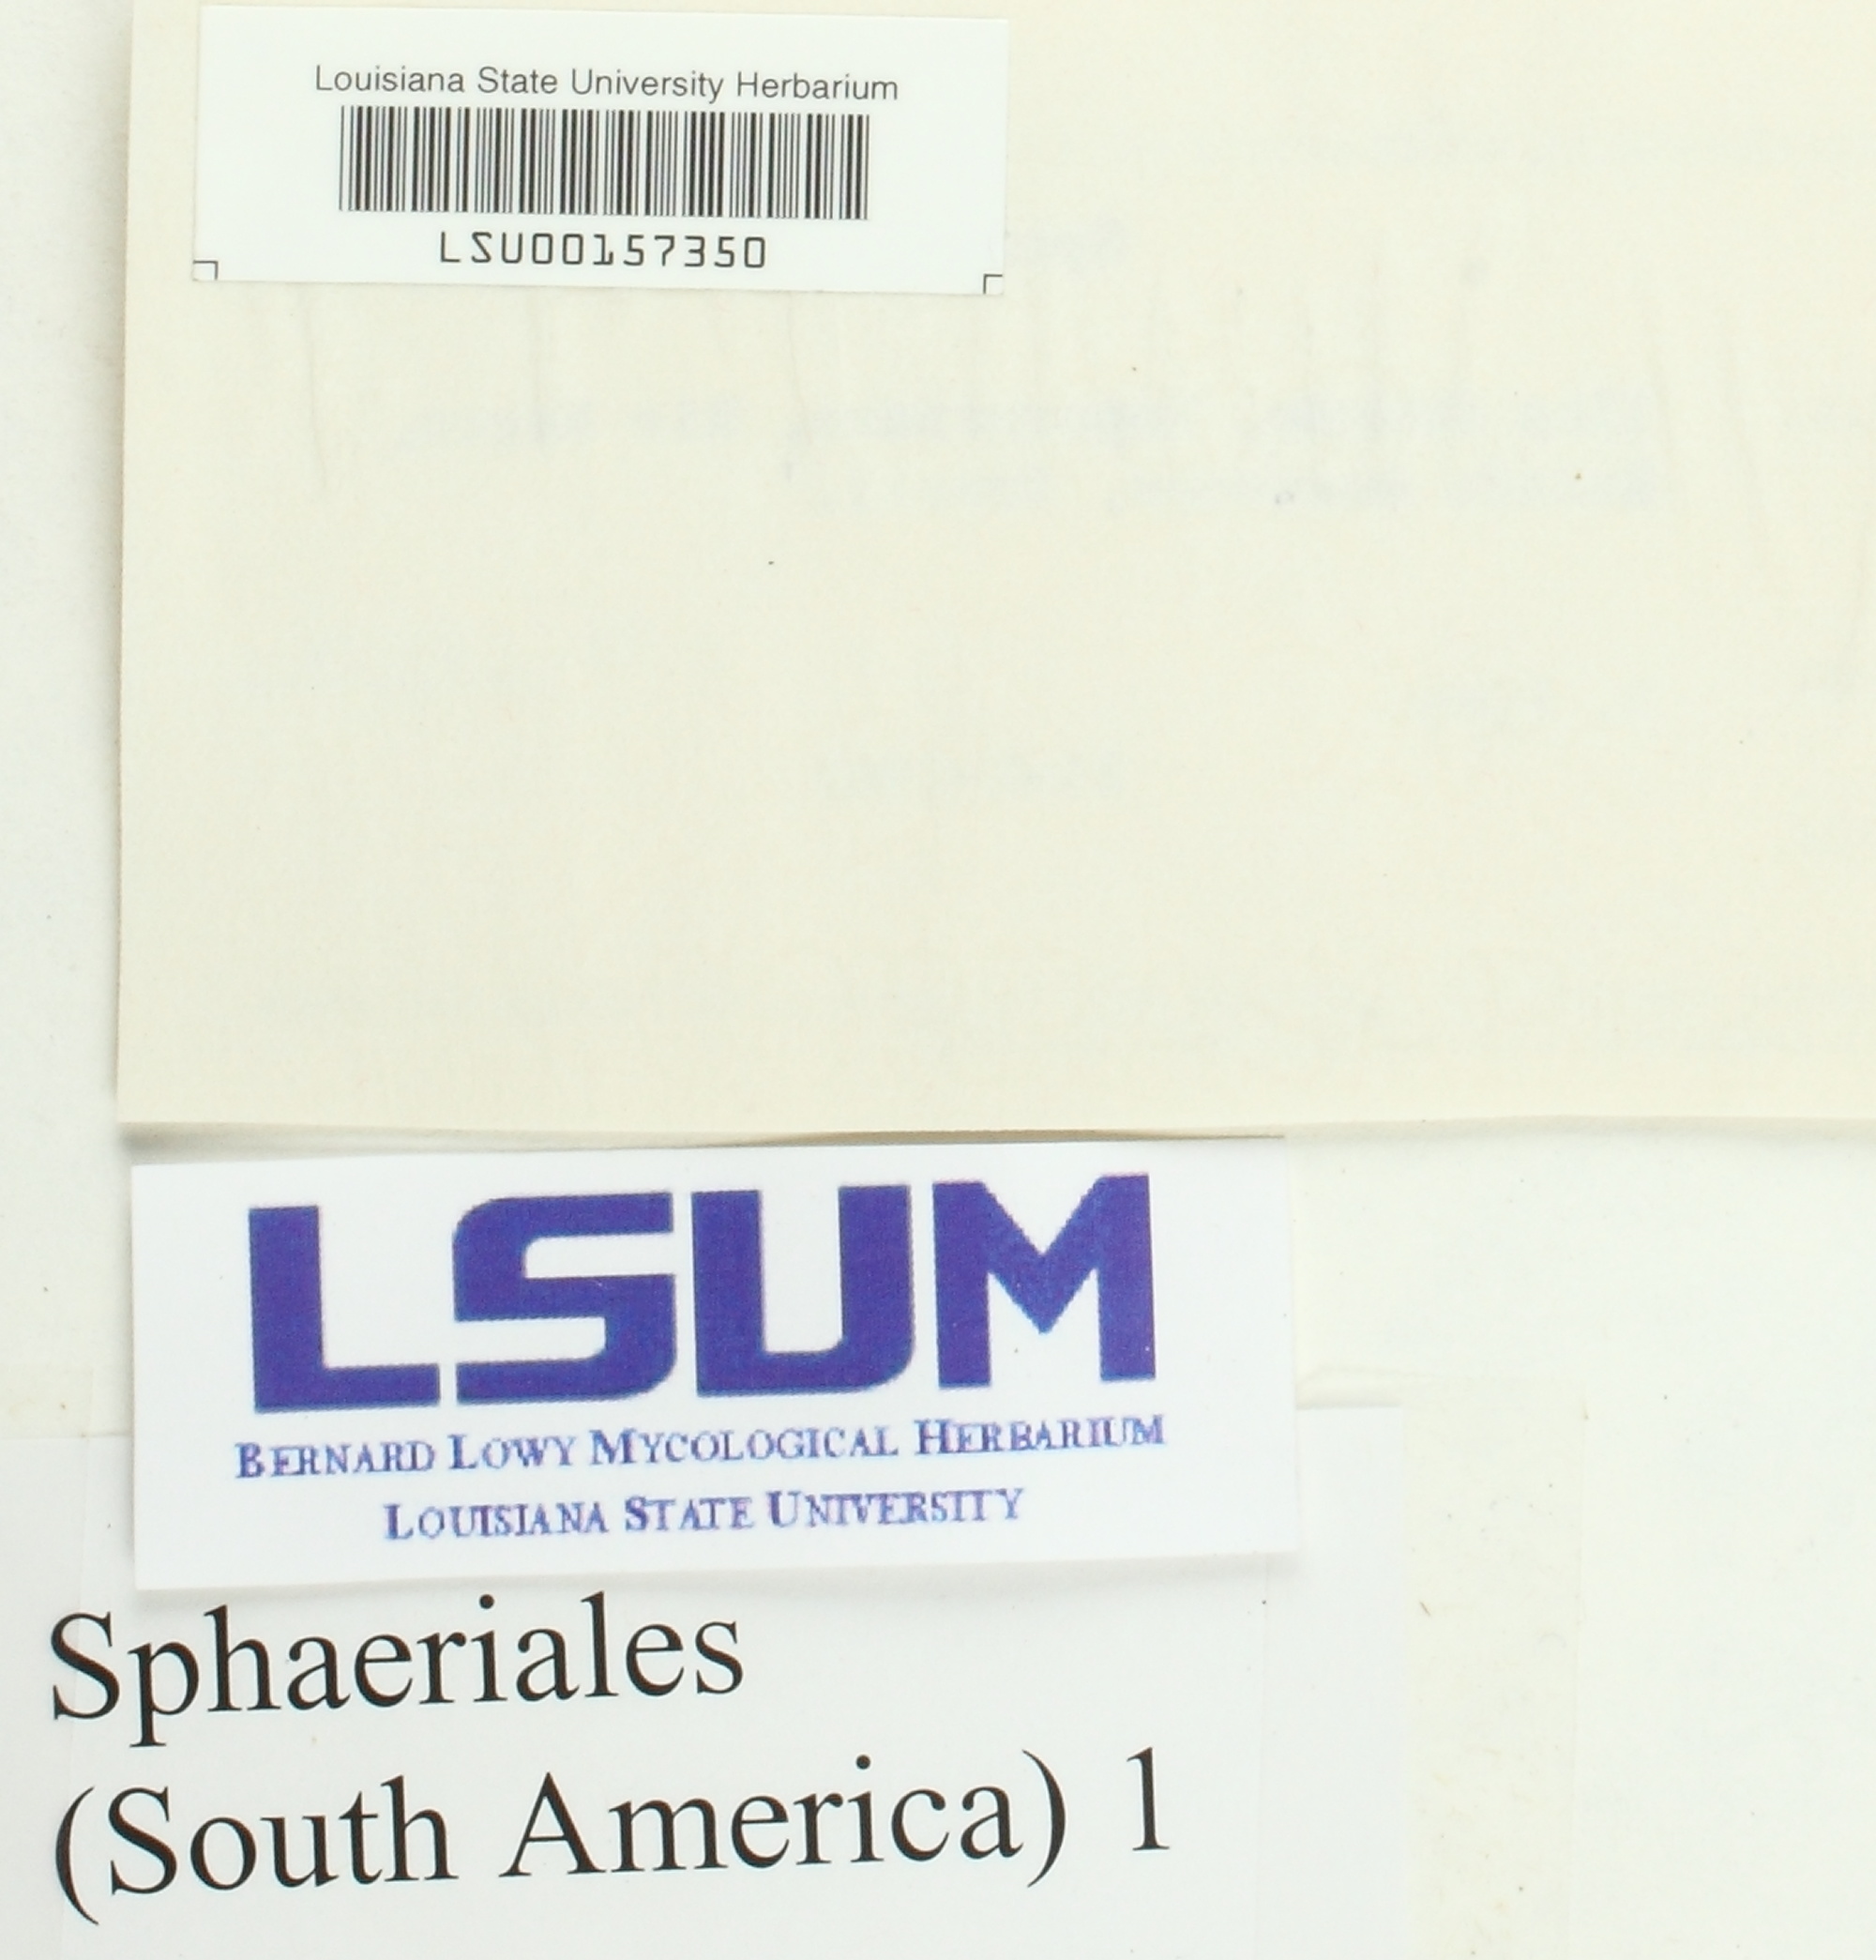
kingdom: Fungi
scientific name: Fungi
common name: Fungi
